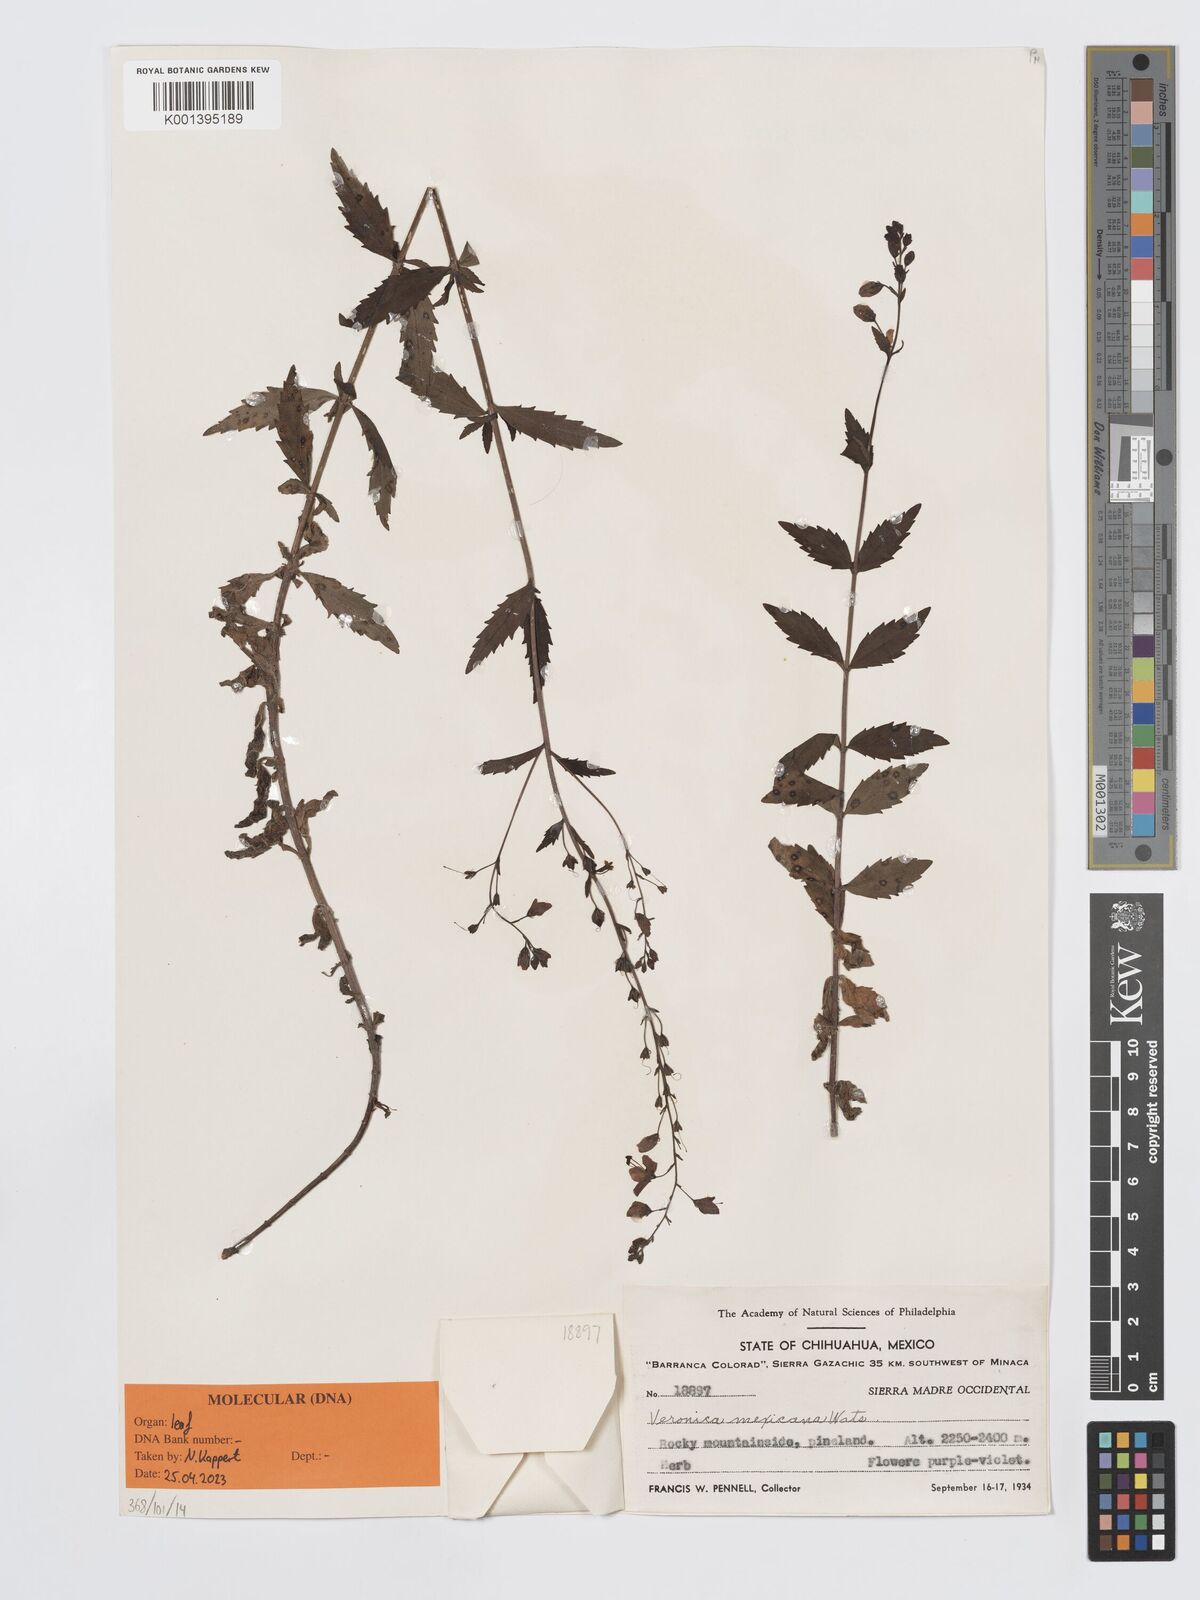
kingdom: Plantae
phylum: Tracheophyta
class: Magnoliopsida
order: Lamiales
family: Plantaginaceae
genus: Veronica
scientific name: Veronica mexicana
